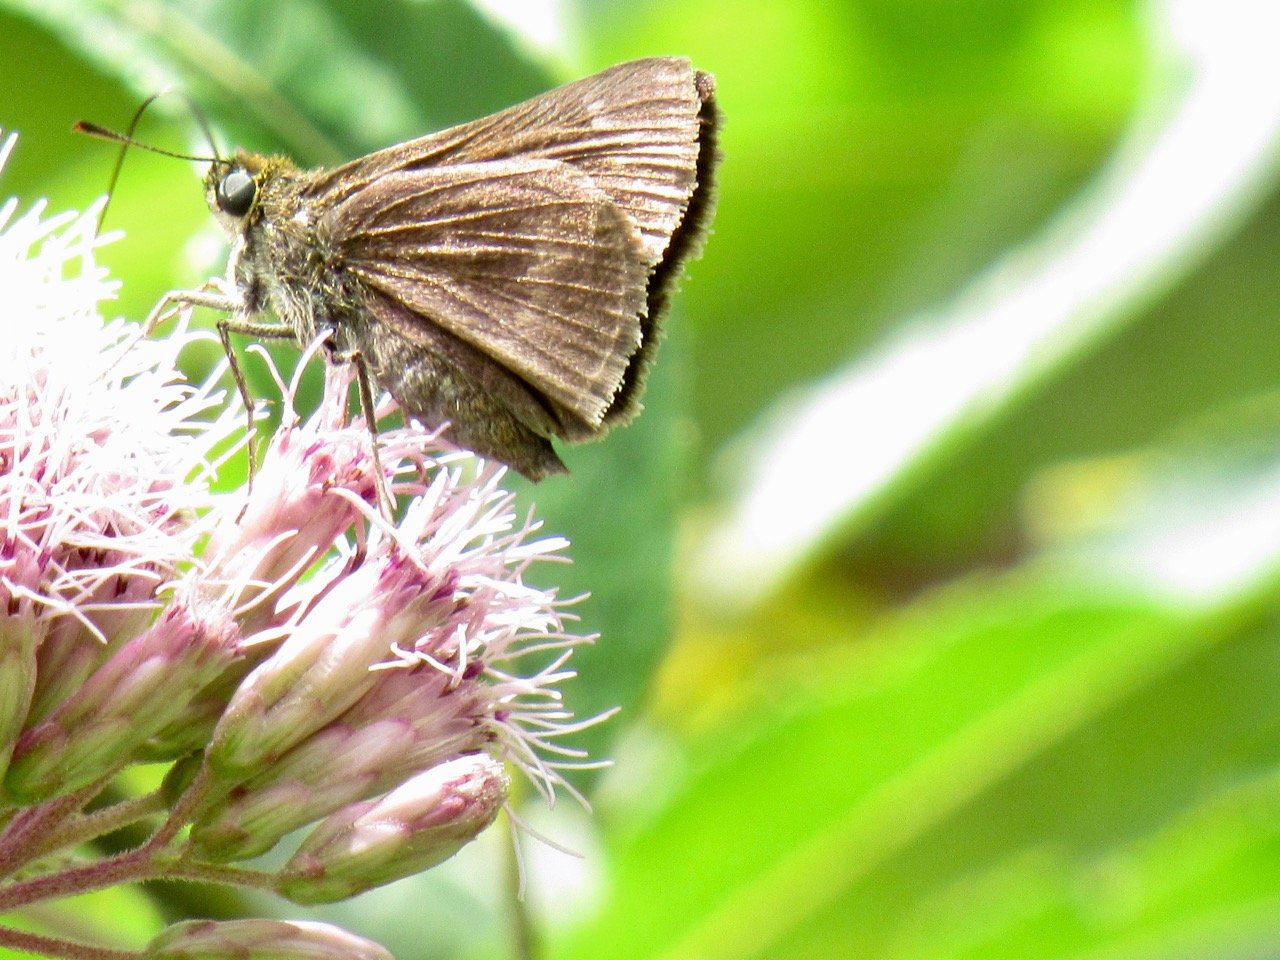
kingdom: Animalia
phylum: Arthropoda
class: Insecta
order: Lepidoptera
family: Hesperiidae
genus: Polites
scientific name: Polites egeremet
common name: Northern Broken-Dash
